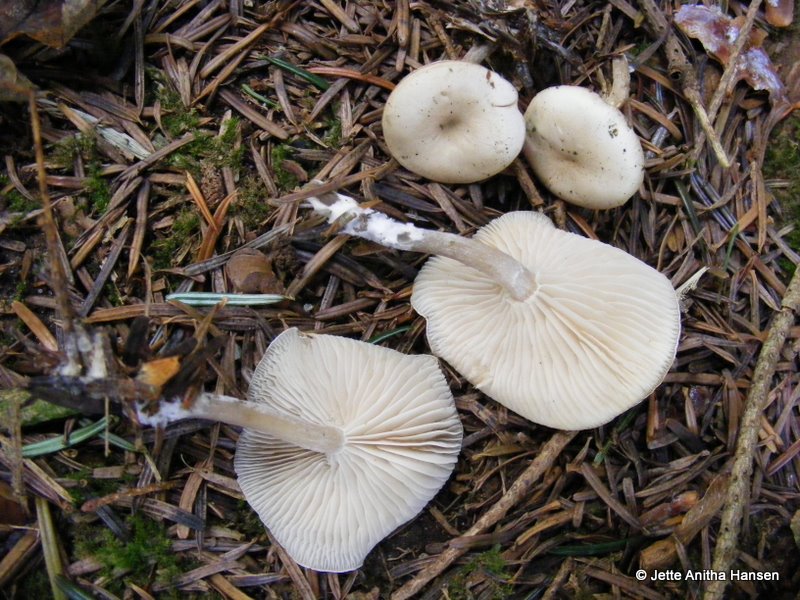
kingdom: Fungi
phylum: Basidiomycota
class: Agaricomycetes
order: Agaricales
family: Tricholomataceae
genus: Clitocybe
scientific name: Clitocybe metachroa
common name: grå tragthat
